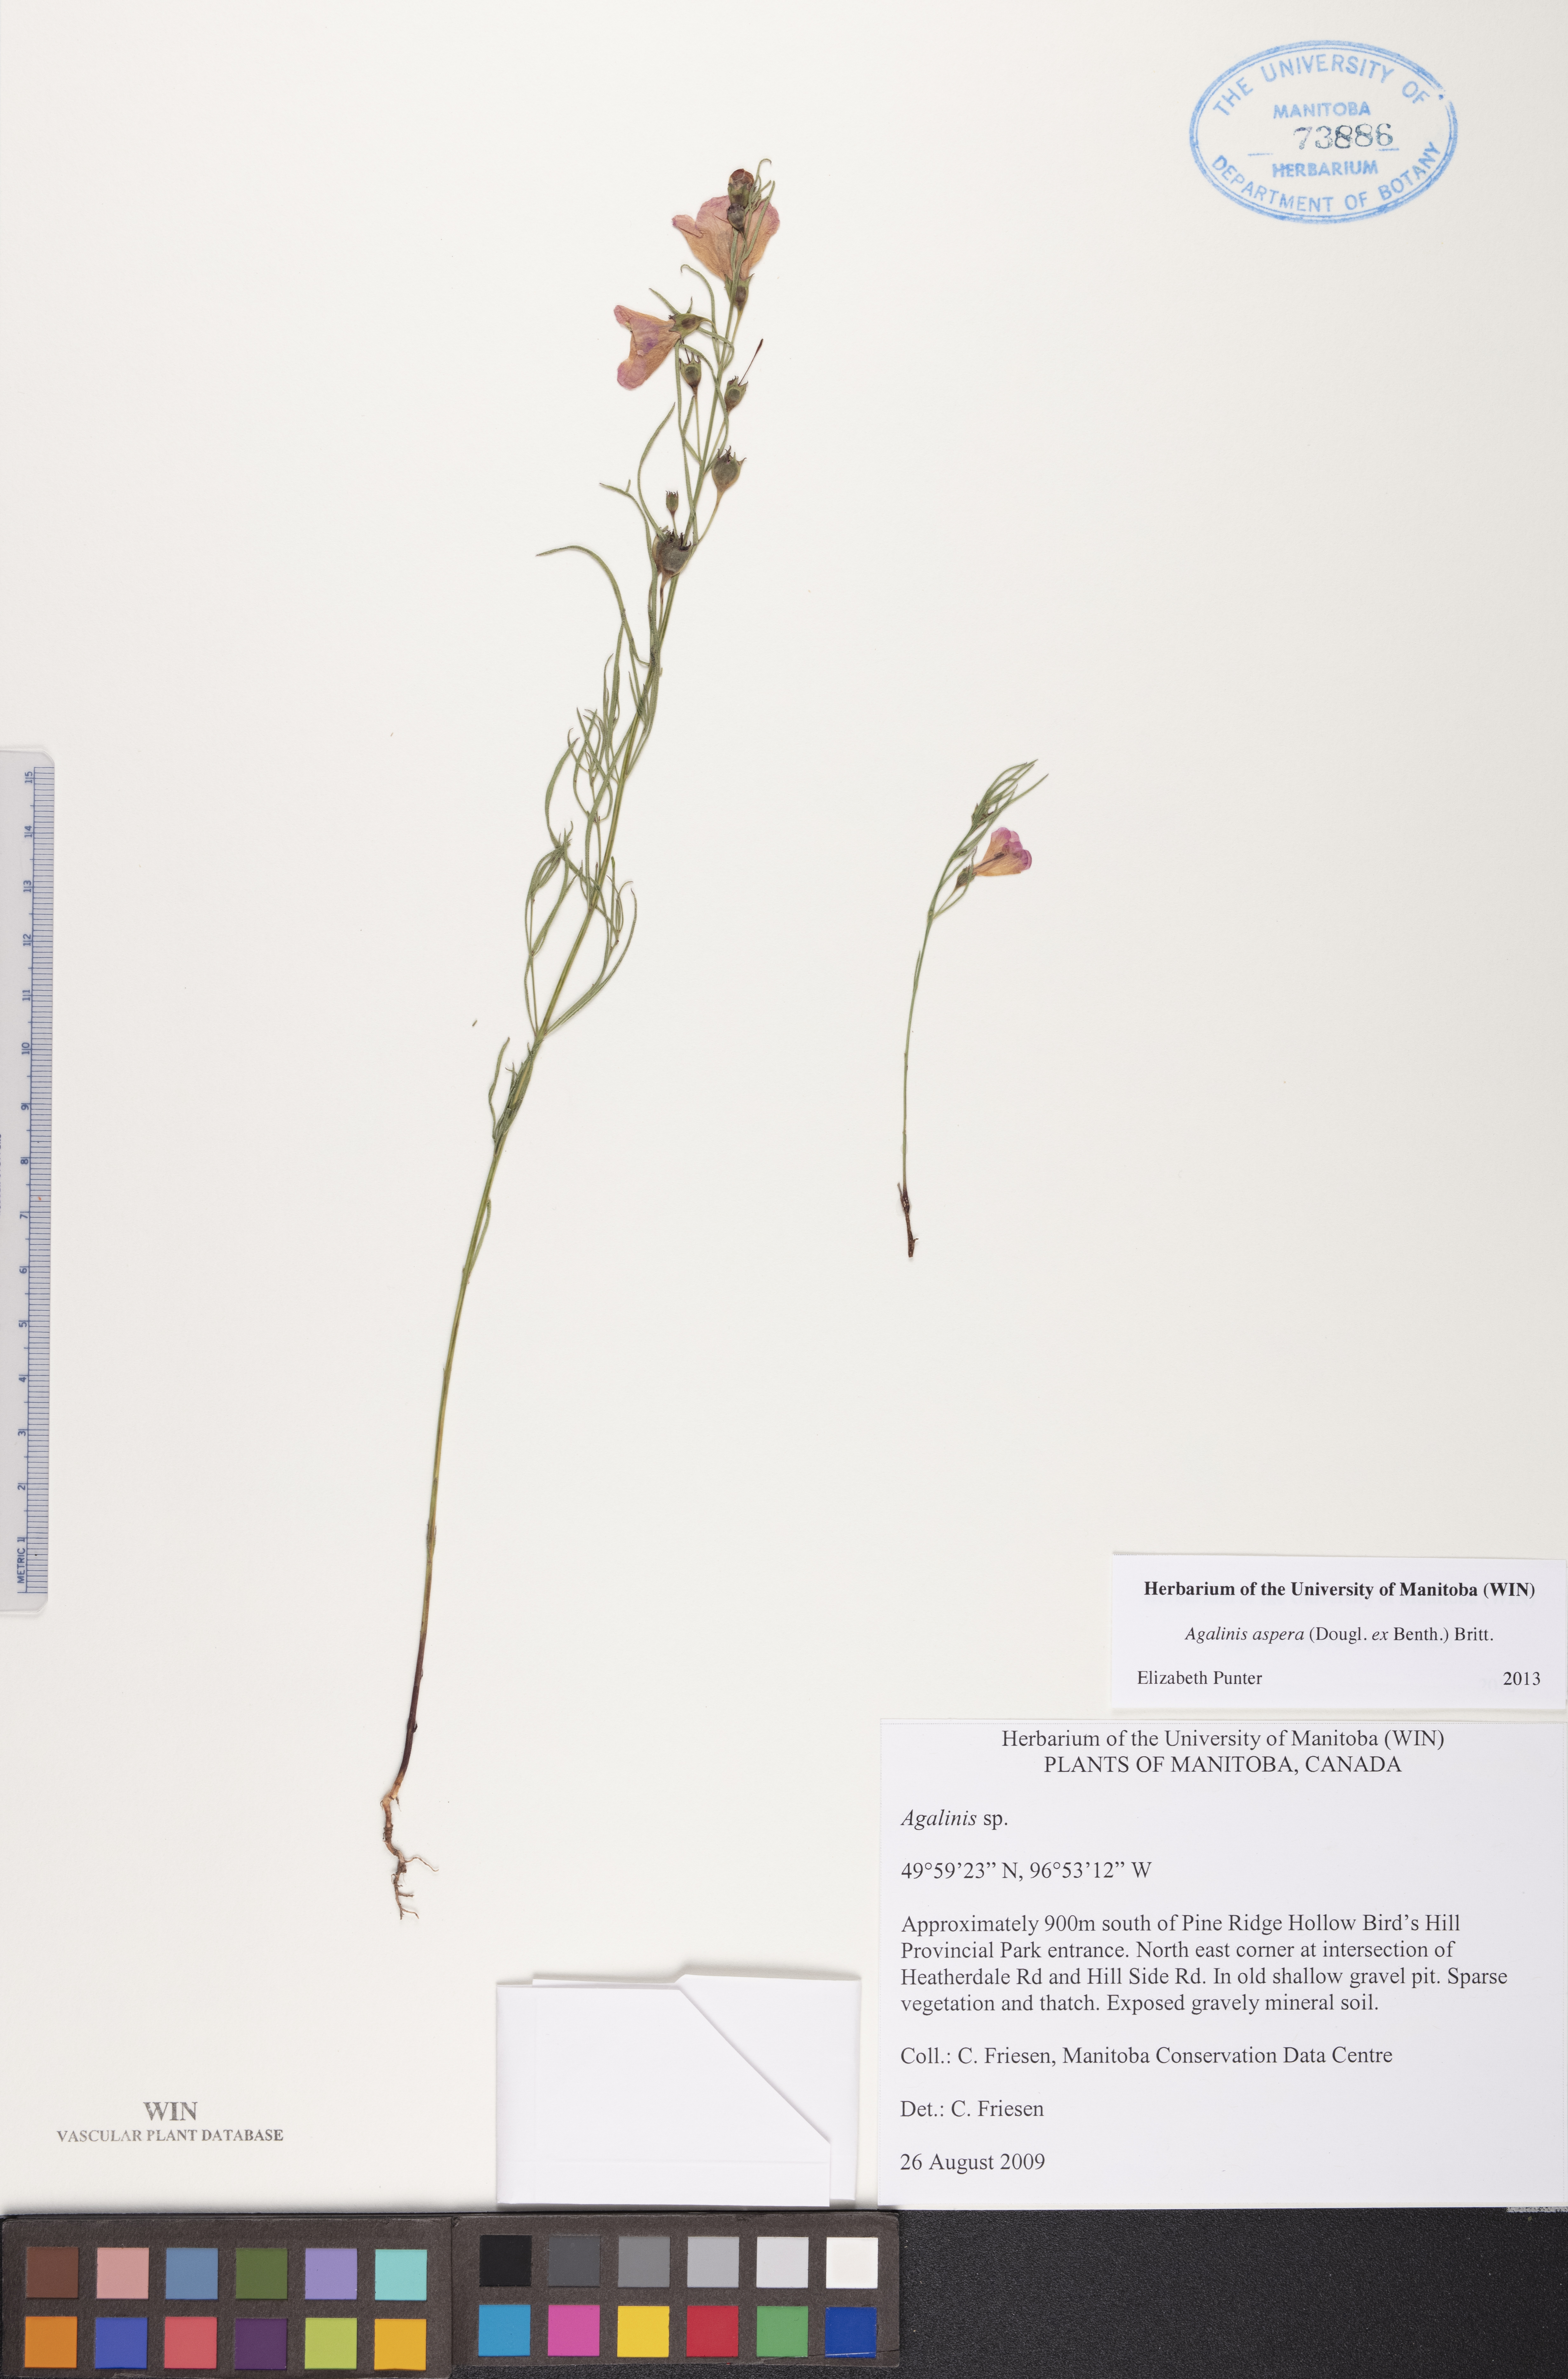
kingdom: Plantae
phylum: Tracheophyta
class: Magnoliopsida
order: Lamiales
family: Orobanchaceae
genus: Agalinis
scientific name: Agalinis aspera
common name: Rough agalinis
